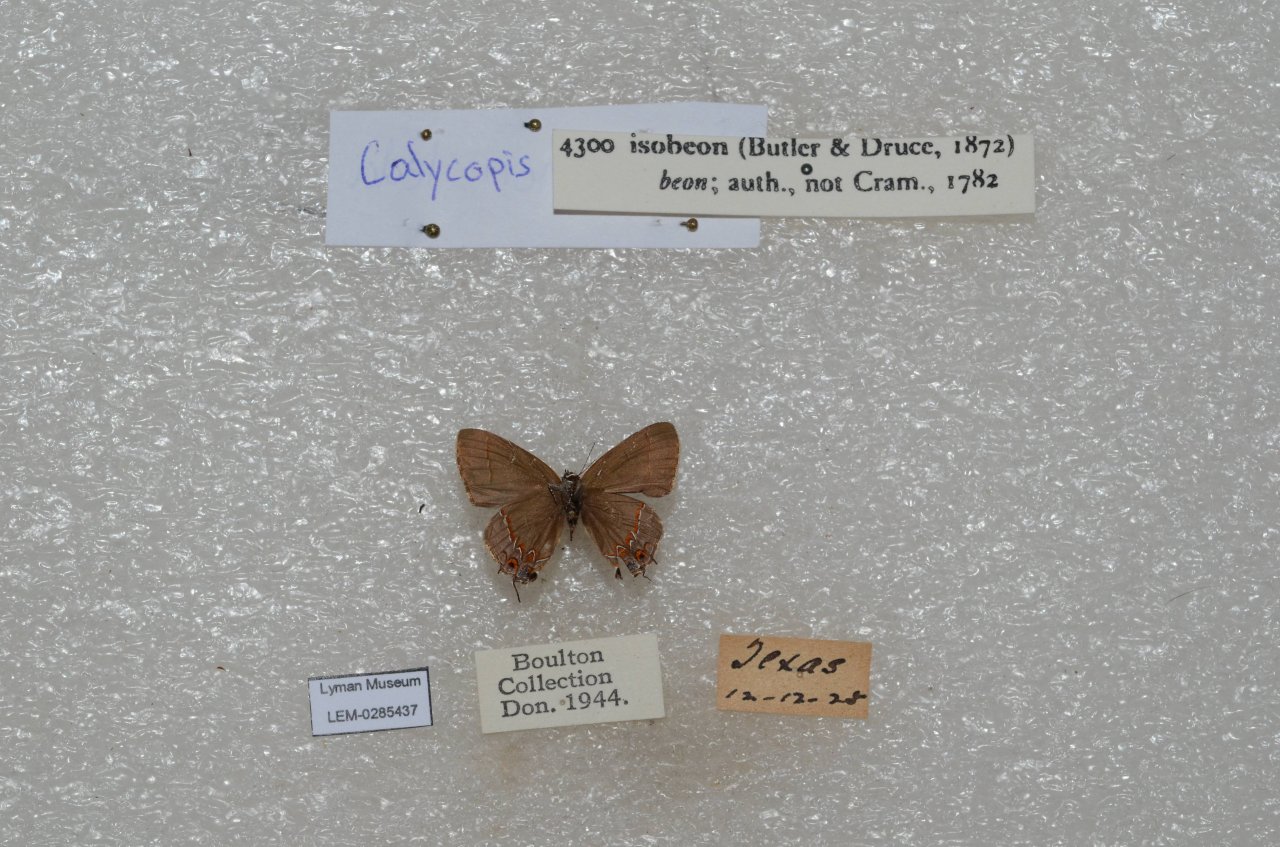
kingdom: Animalia
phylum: Arthropoda
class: Insecta
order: Lepidoptera
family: Lycaenidae
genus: Calycopis
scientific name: Calycopis cecrops
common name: Red-banded Hairstreak
